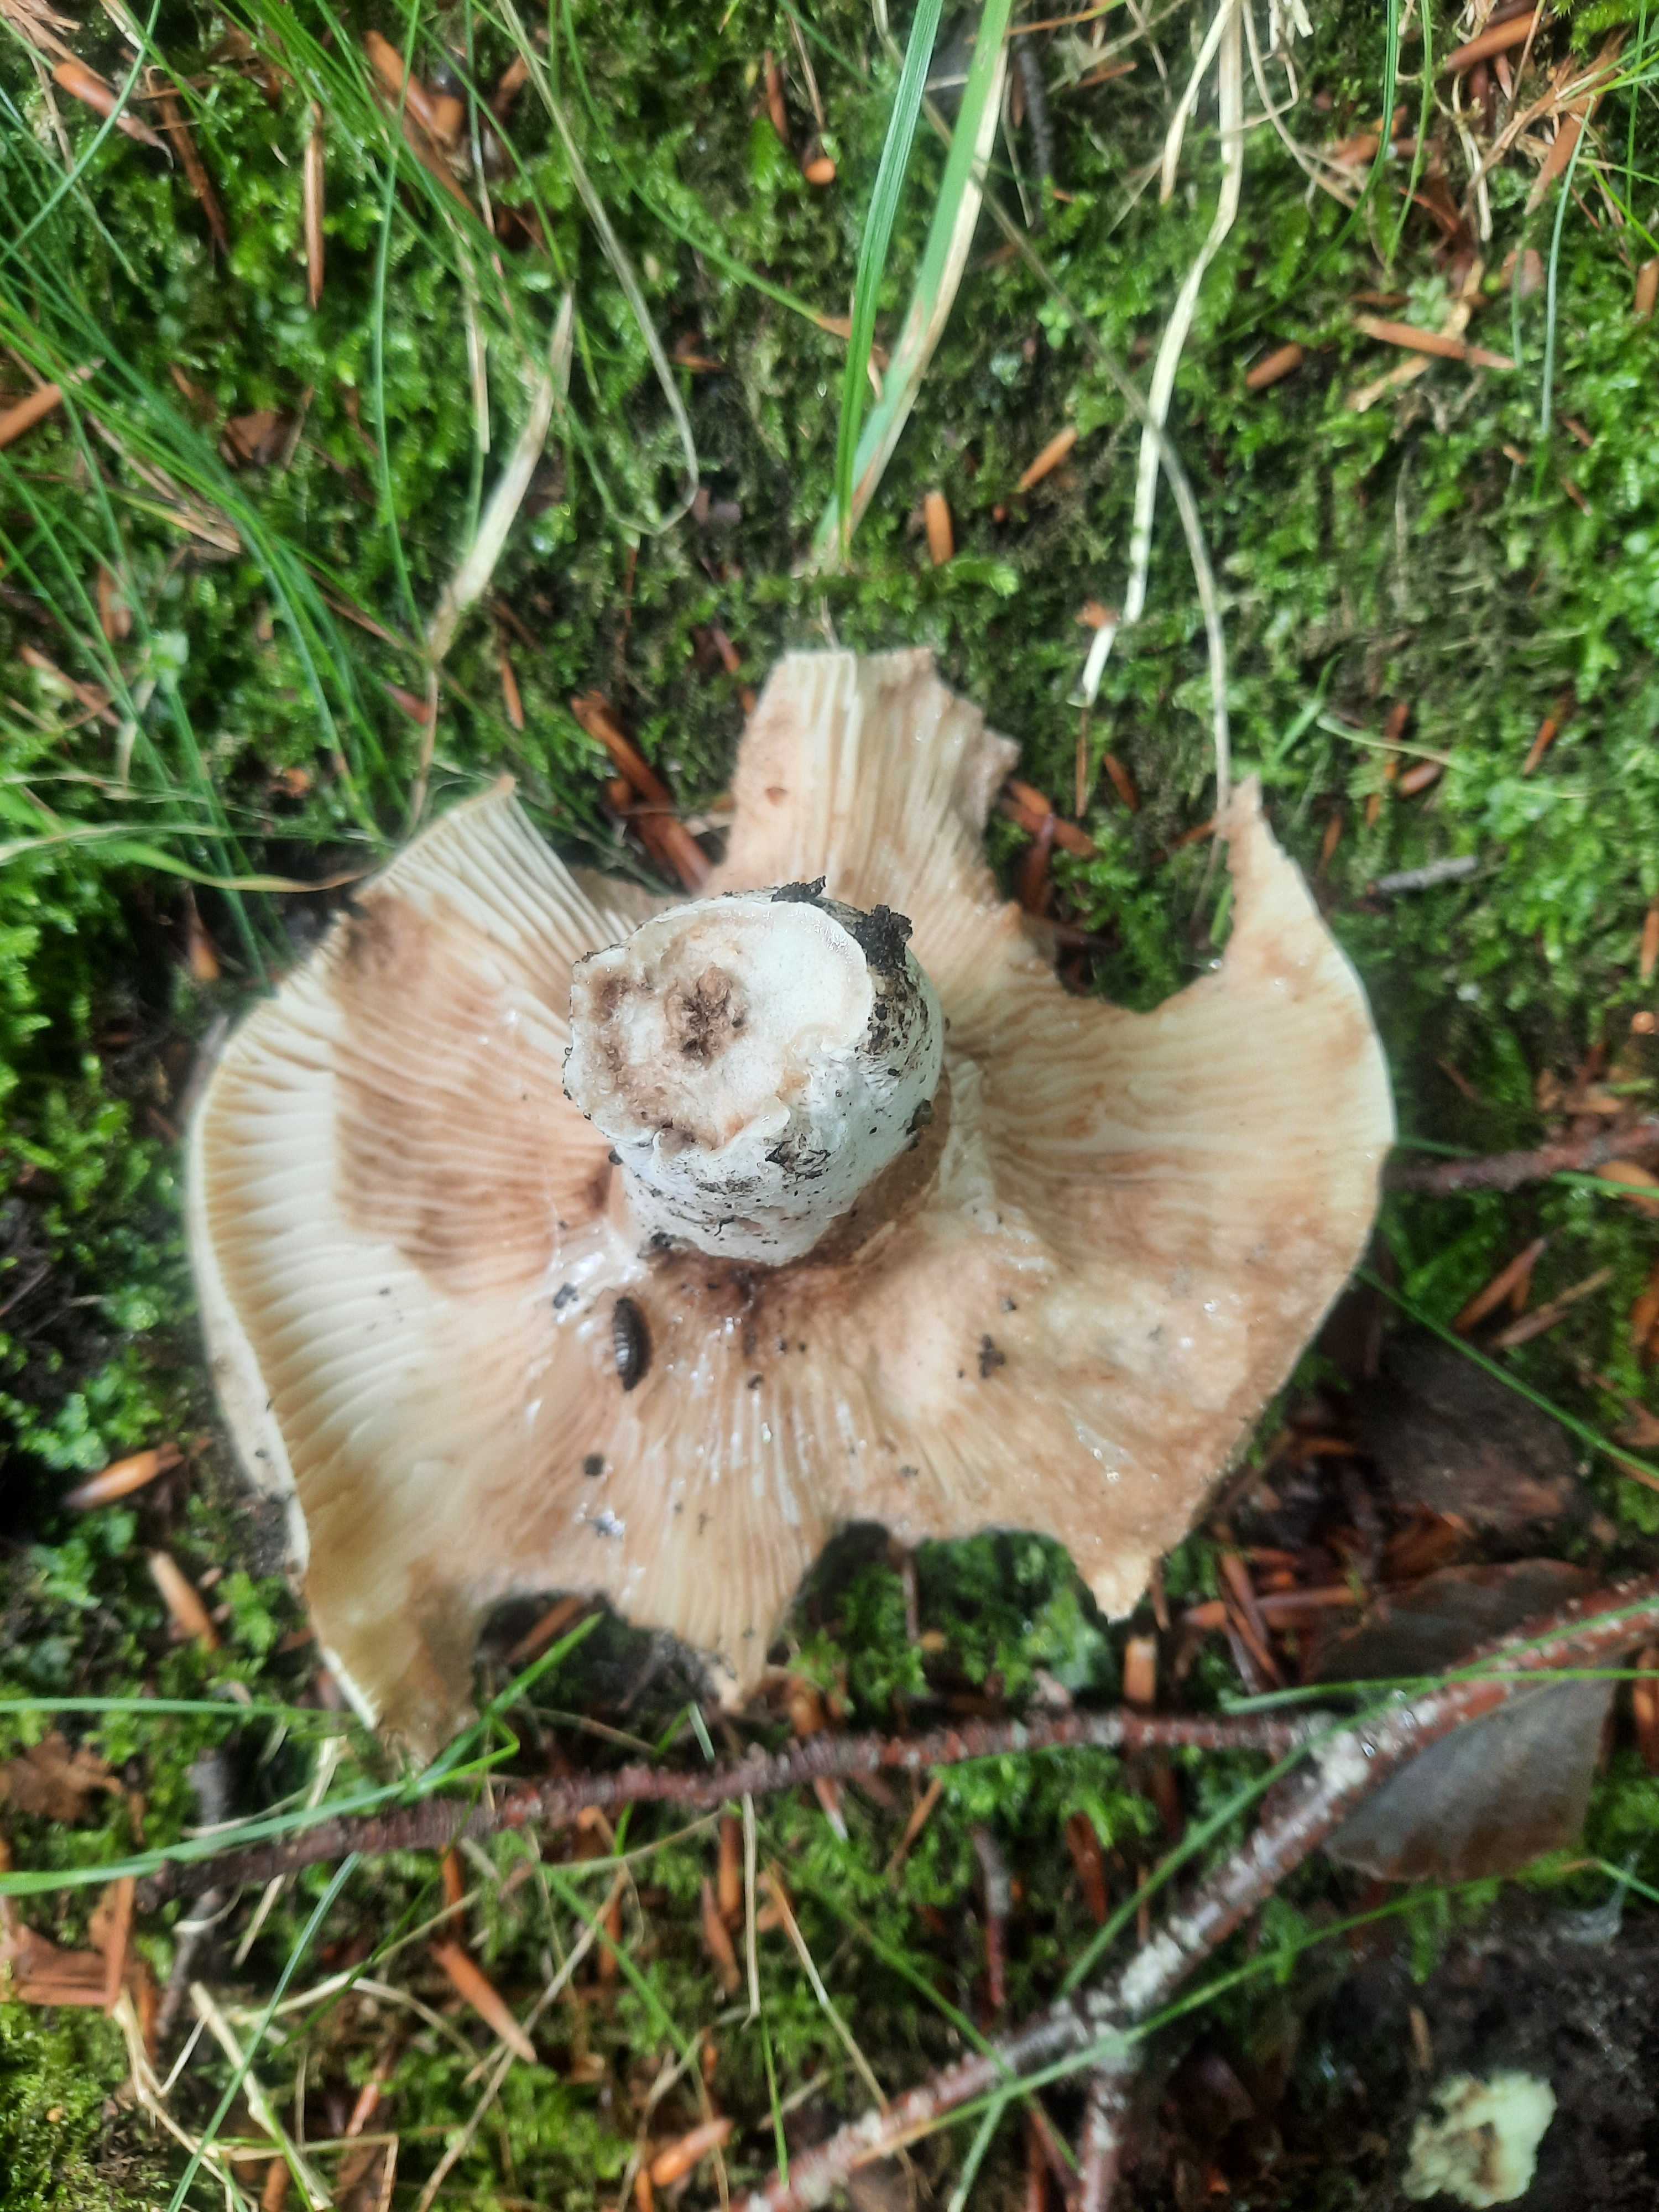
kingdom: Fungi
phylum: Basidiomycota
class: Agaricomycetes
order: Russulales
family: Russulaceae
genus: Russula
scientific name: Russula adusta
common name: sværtende skørhat
